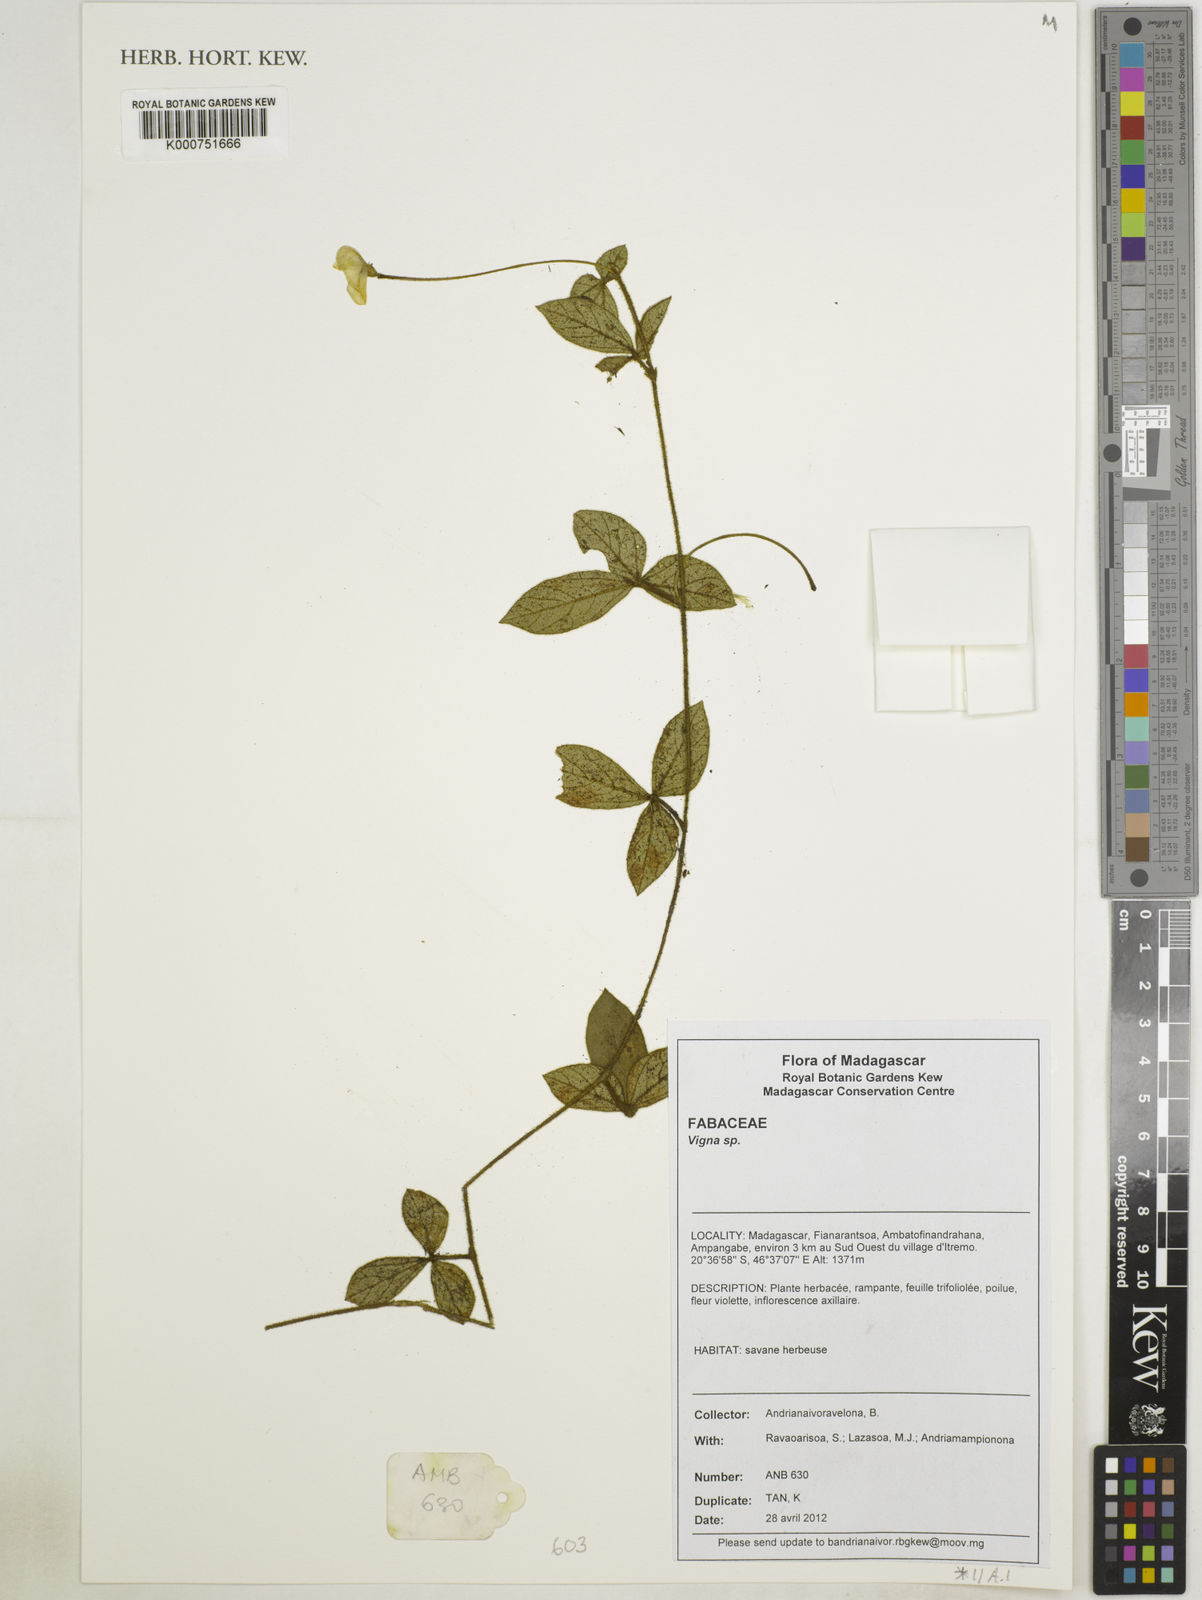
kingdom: Plantae
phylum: Tracheophyta
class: Magnoliopsida
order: Fabales
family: Fabaceae
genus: Vigna
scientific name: Vigna
